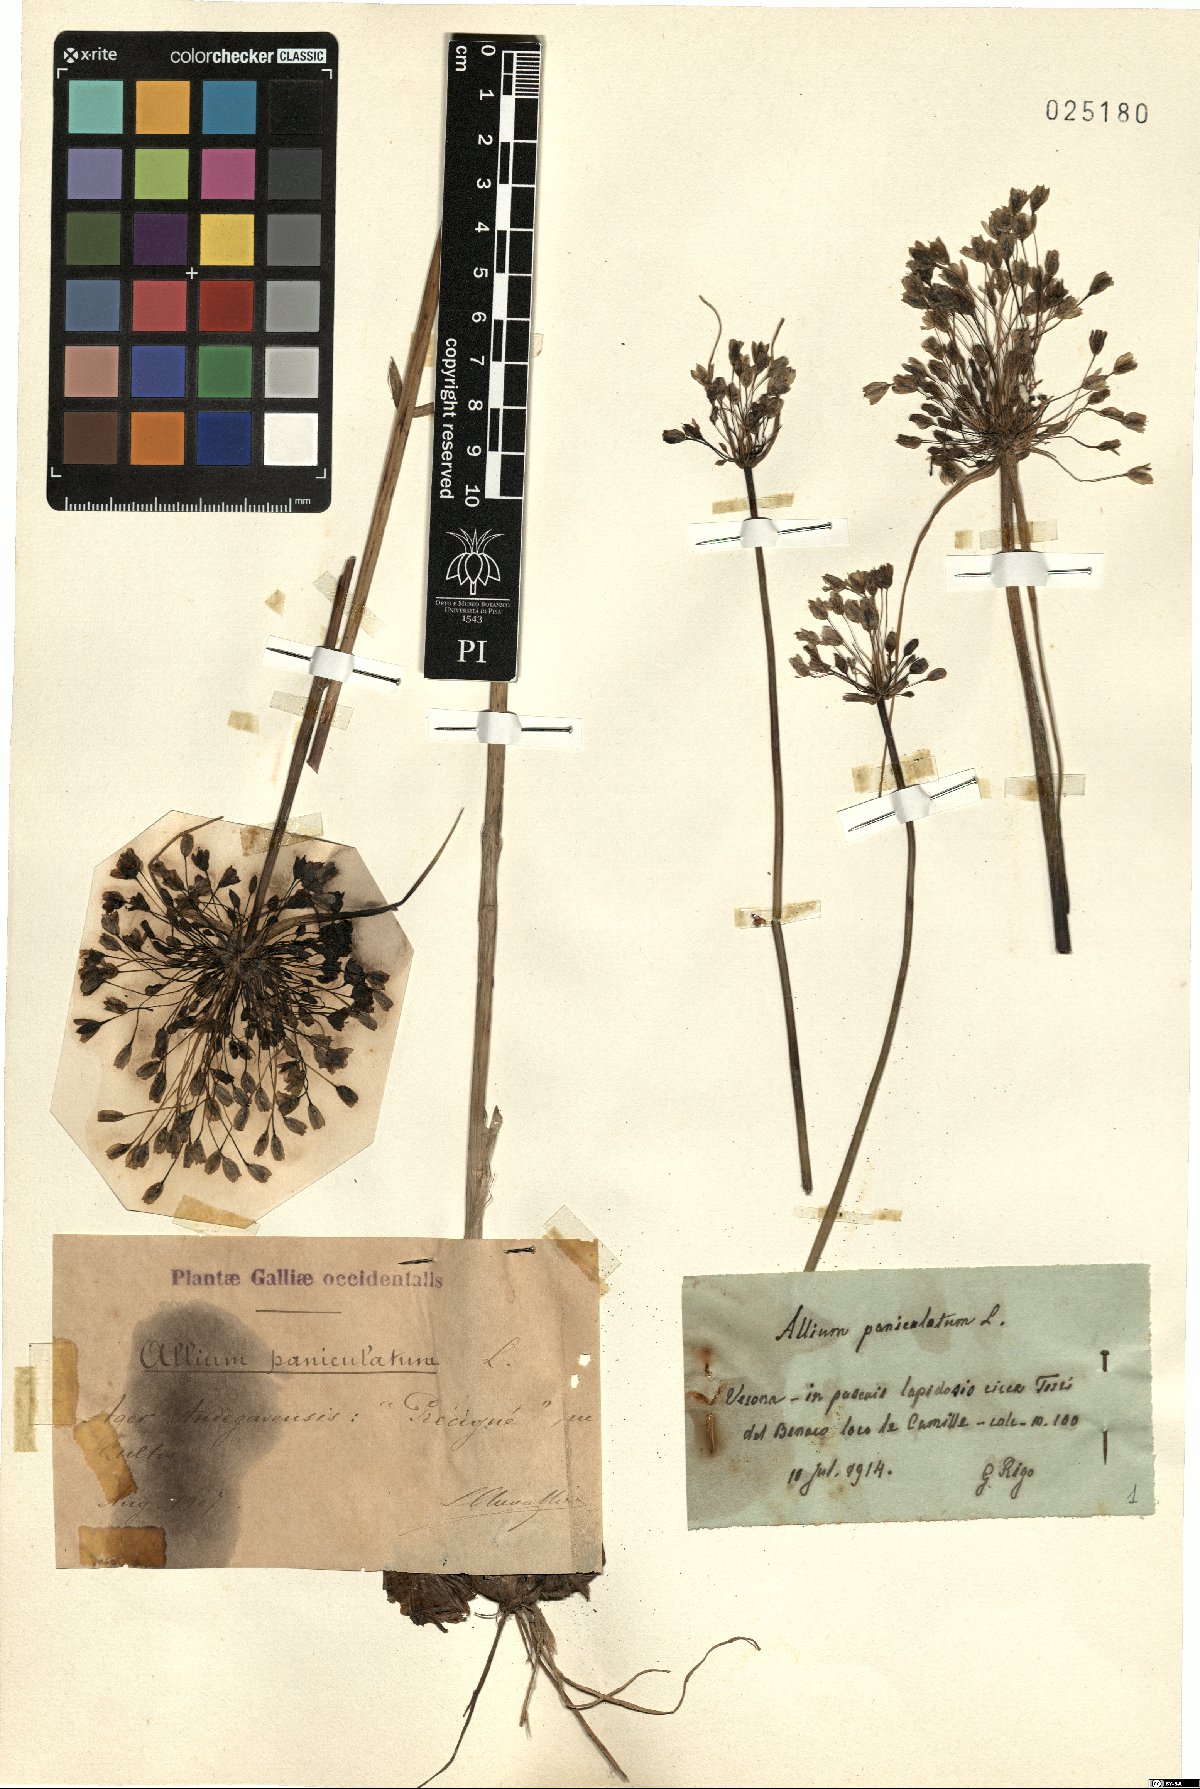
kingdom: Plantae
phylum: Tracheophyta
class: Liliopsida
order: Asparagales
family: Amaryllidaceae
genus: Allium
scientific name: Allium paniculatum
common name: Pale garlic
